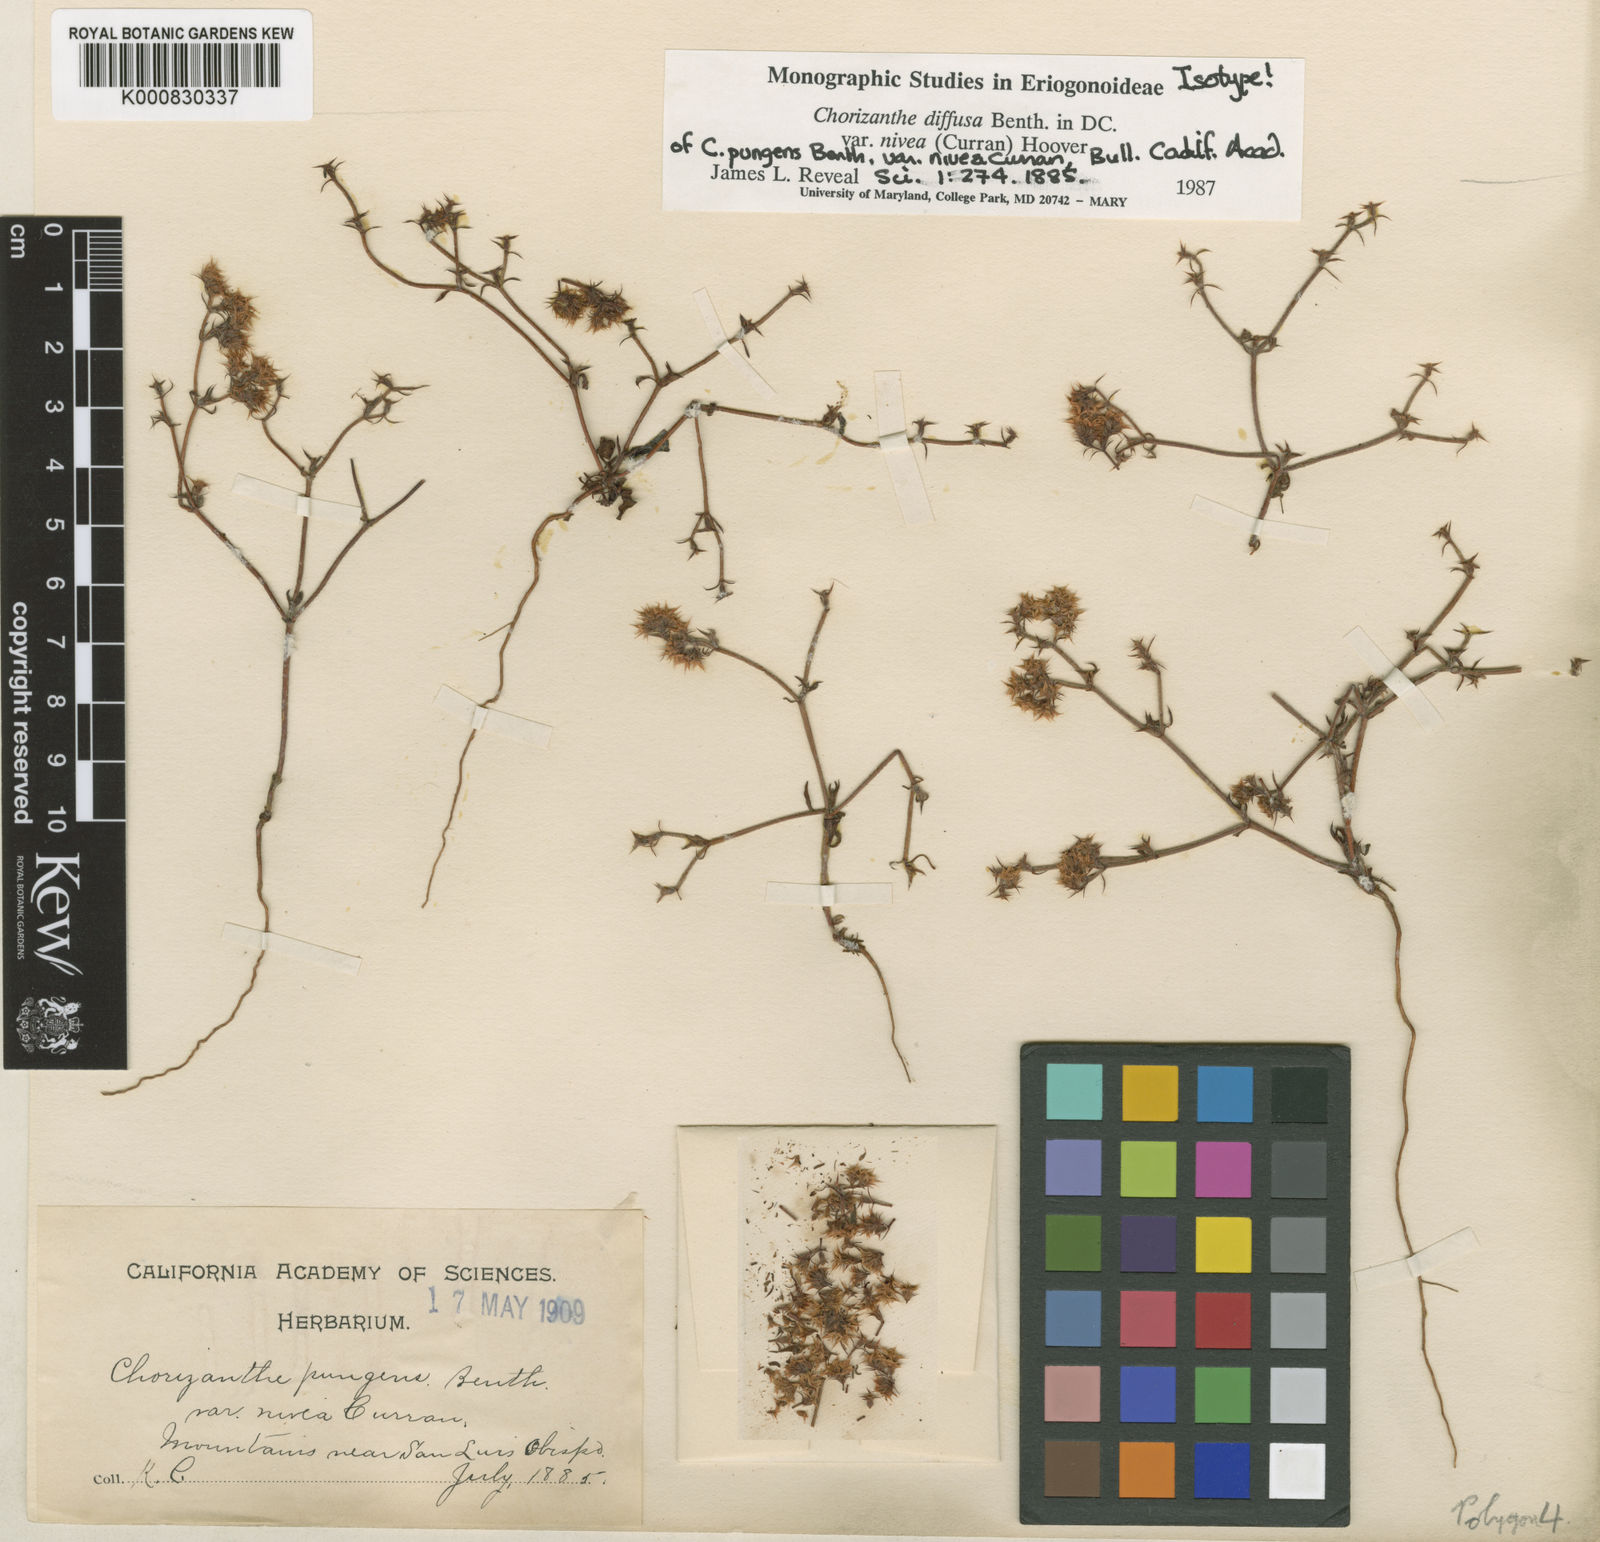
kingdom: Plantae
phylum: Tracheophyta
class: Magnoliopsida
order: Caryophyllales
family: Polygonaceae
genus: Chorizanthe
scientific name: Chorizanthe diffusa
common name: Diffuse spineflower
